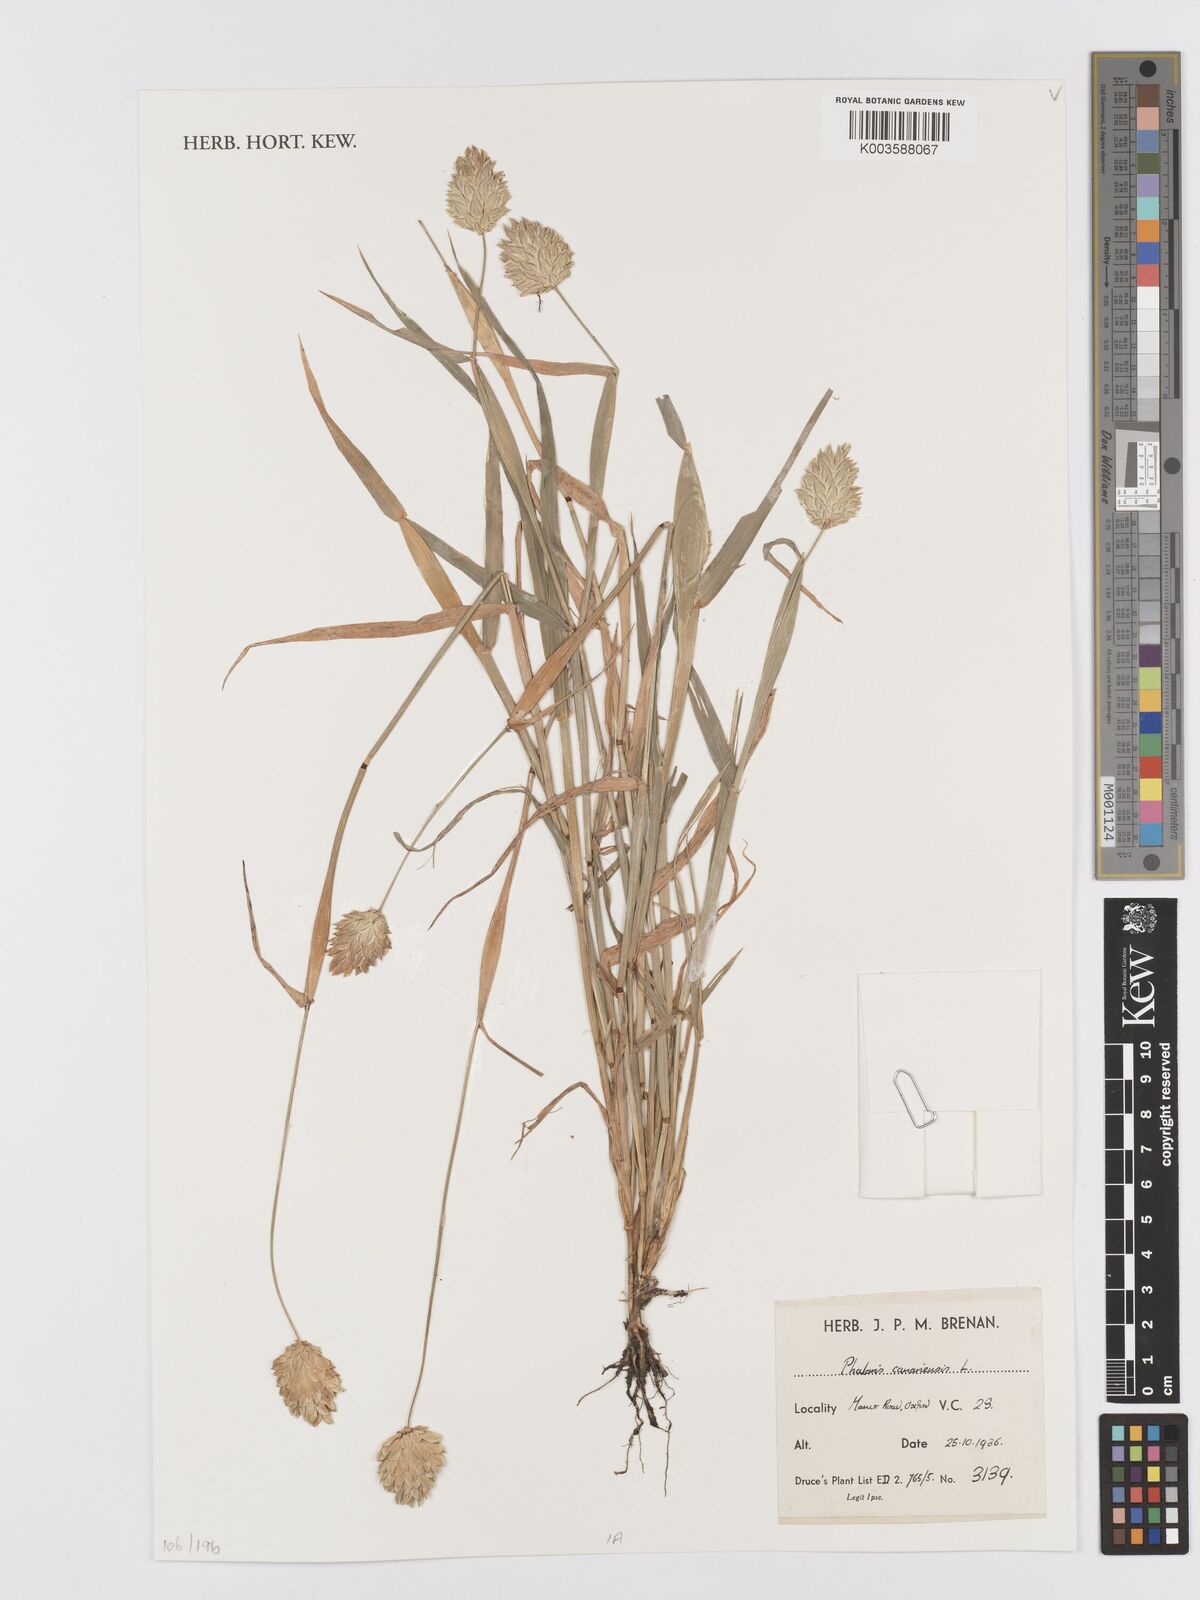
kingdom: Plantae
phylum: Tracheophyta
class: Liliopsida
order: Poales
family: Poaceae
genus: Phalaris
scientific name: Phalaris canariensis
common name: Annual canarygrass
